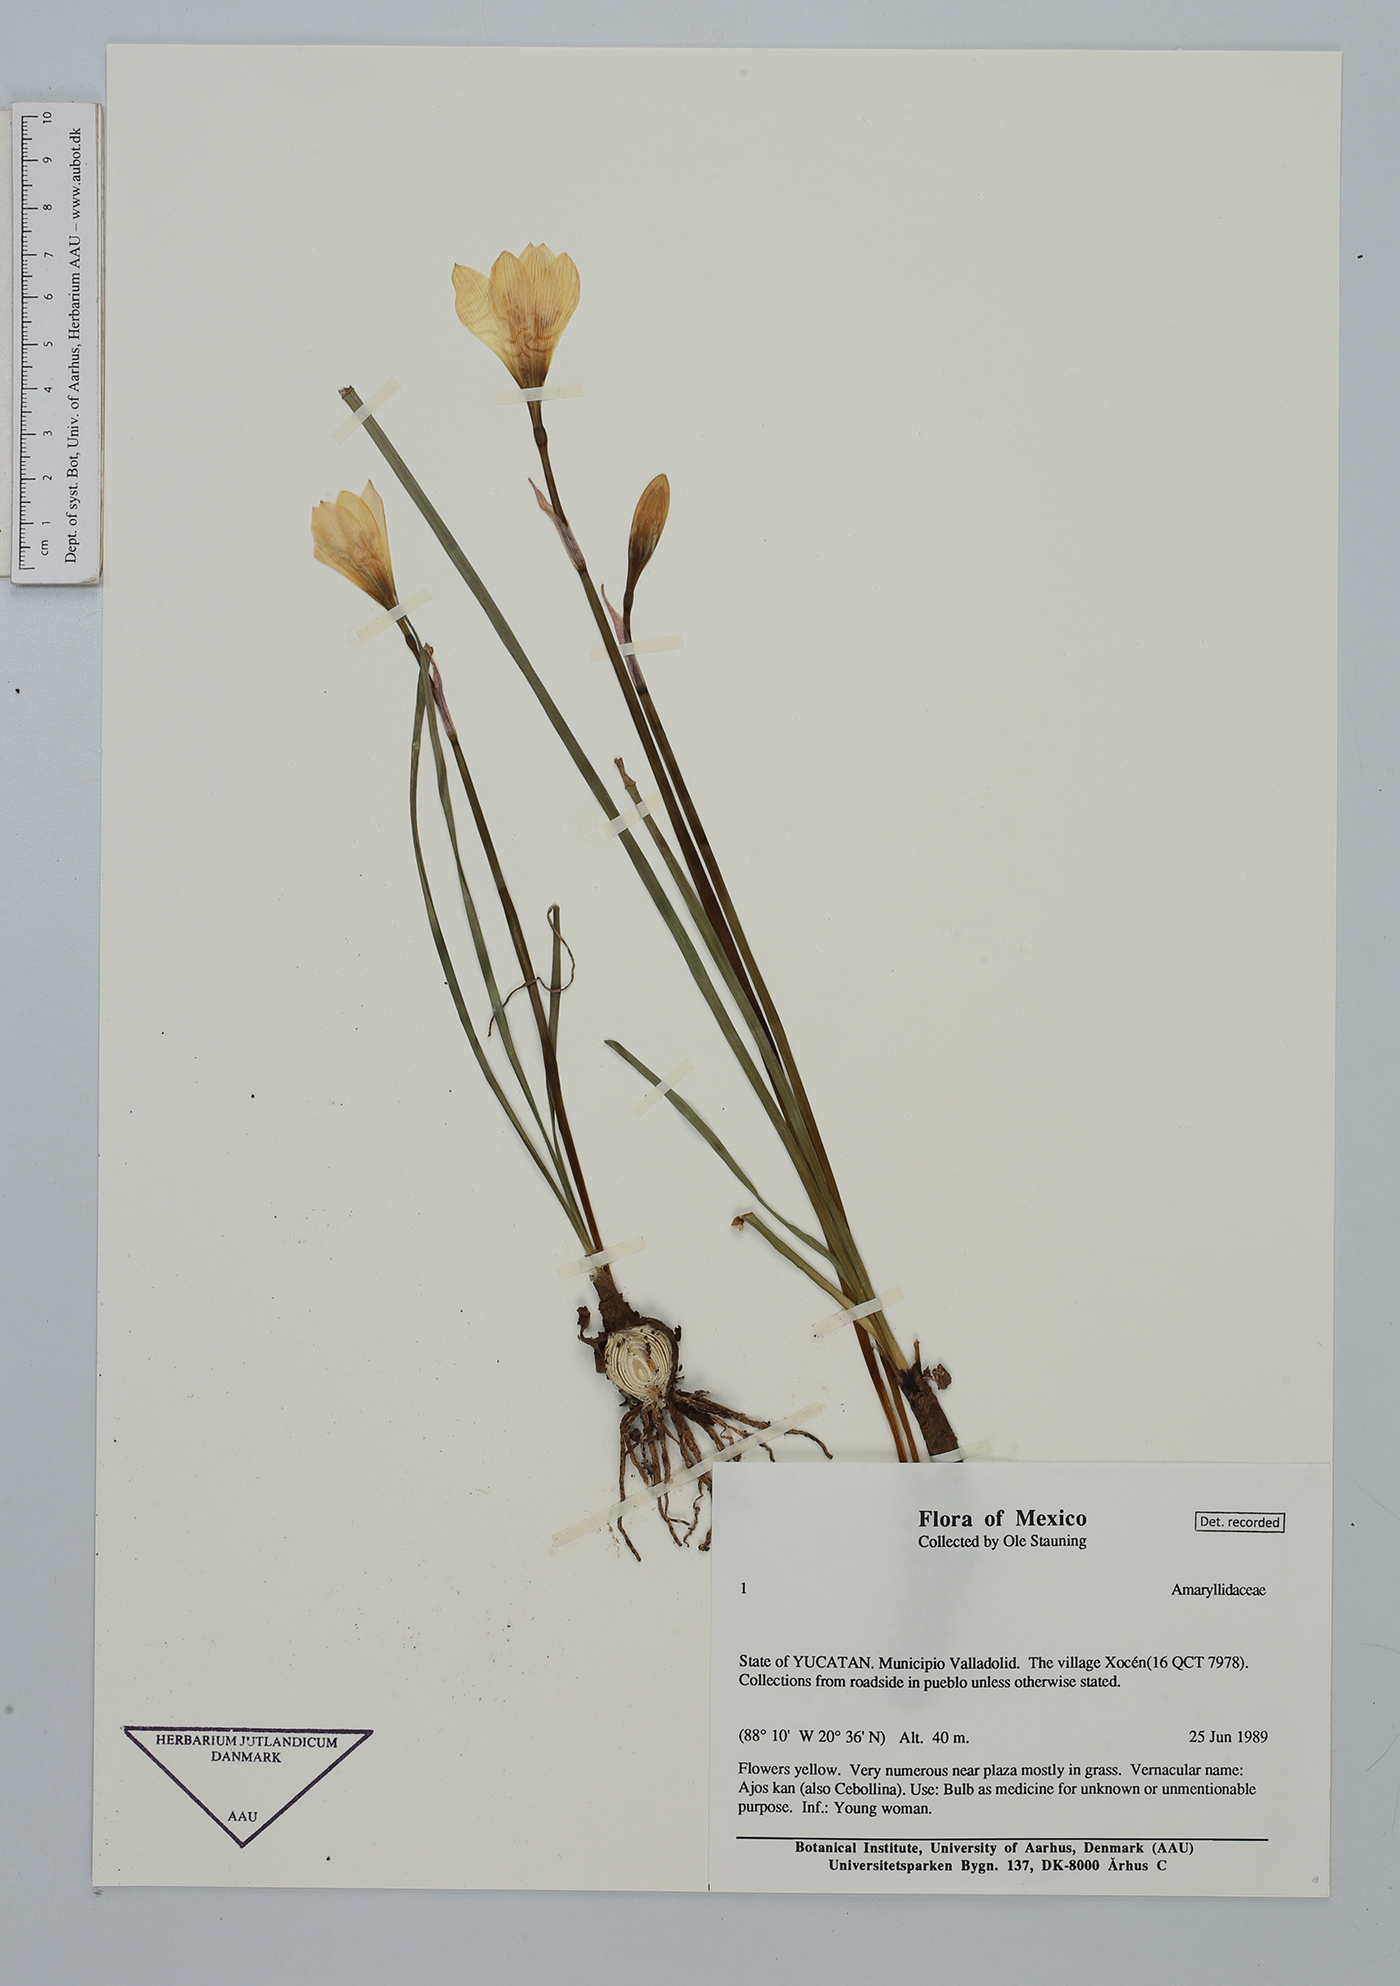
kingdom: Plantae
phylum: Tracheophyta
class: Liliopsida
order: Asparagales
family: Amaryllidaceae
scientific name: Amaryllidaceae
